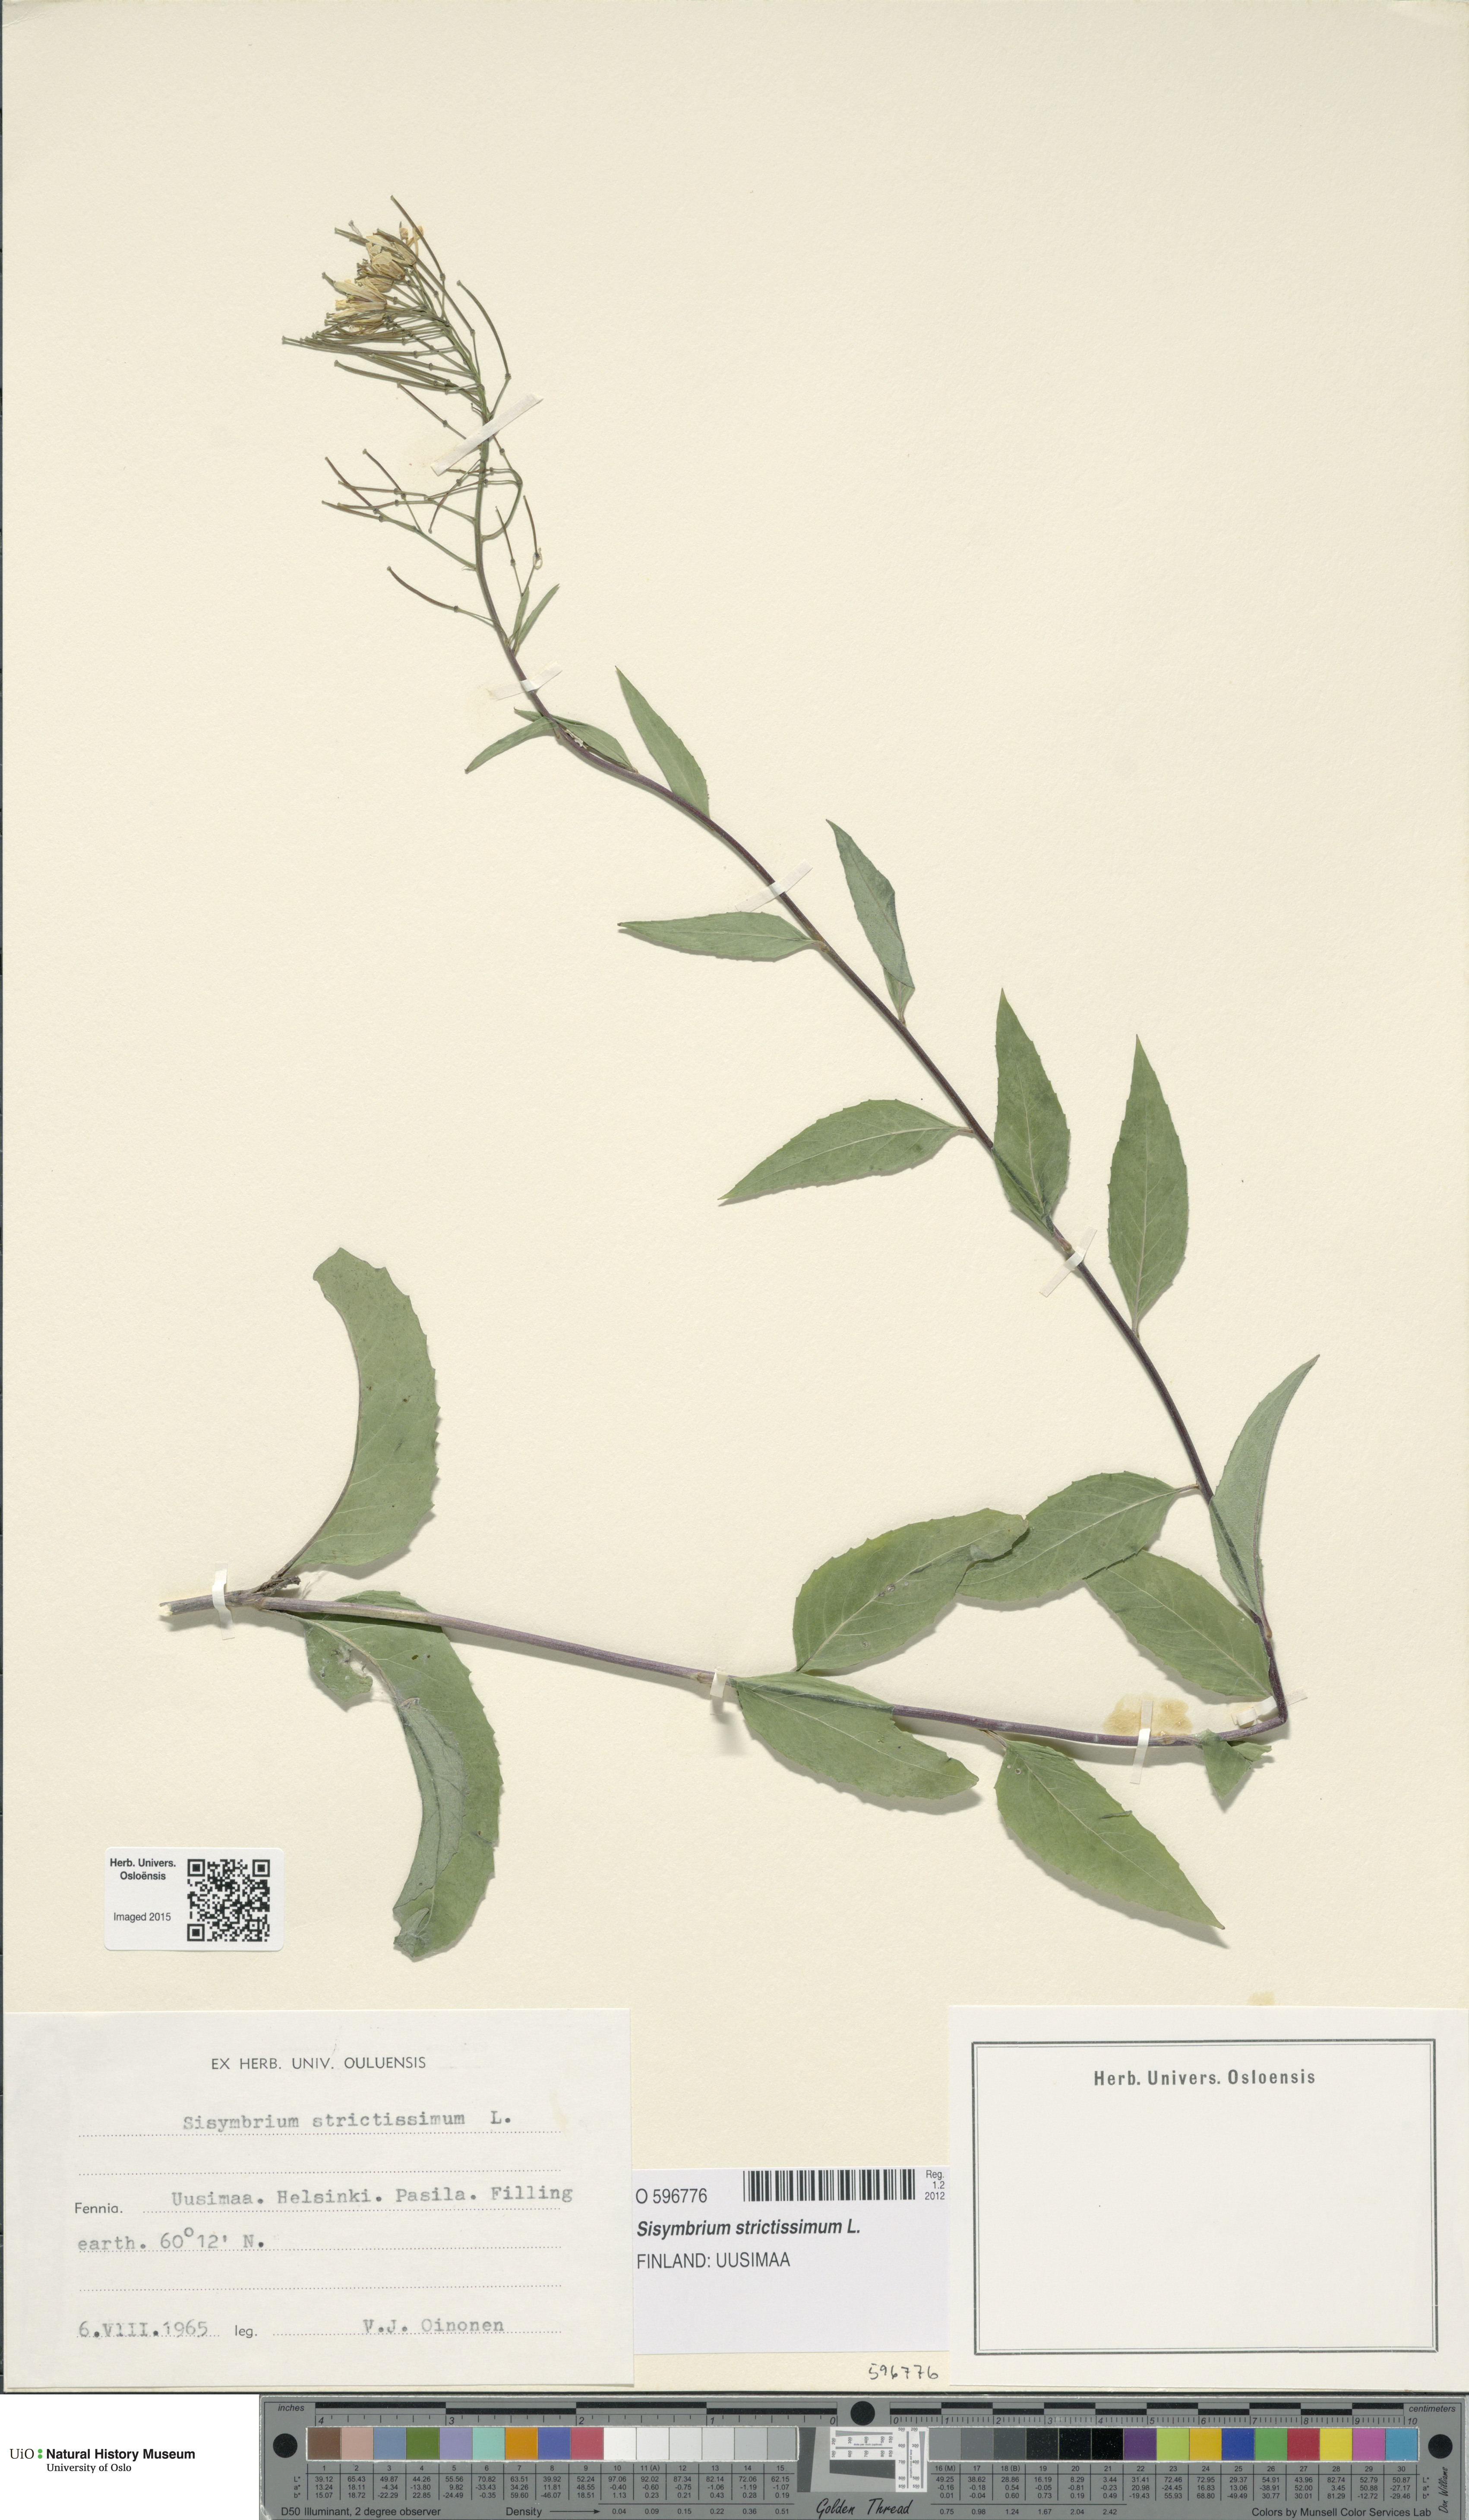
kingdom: Plantae
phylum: Tracheophyta
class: Magnoliopsida
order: Brassicales
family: Brassicaceae
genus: Sisymbrium
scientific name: Sisymbrium strictissimum
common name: Perennial rocket
